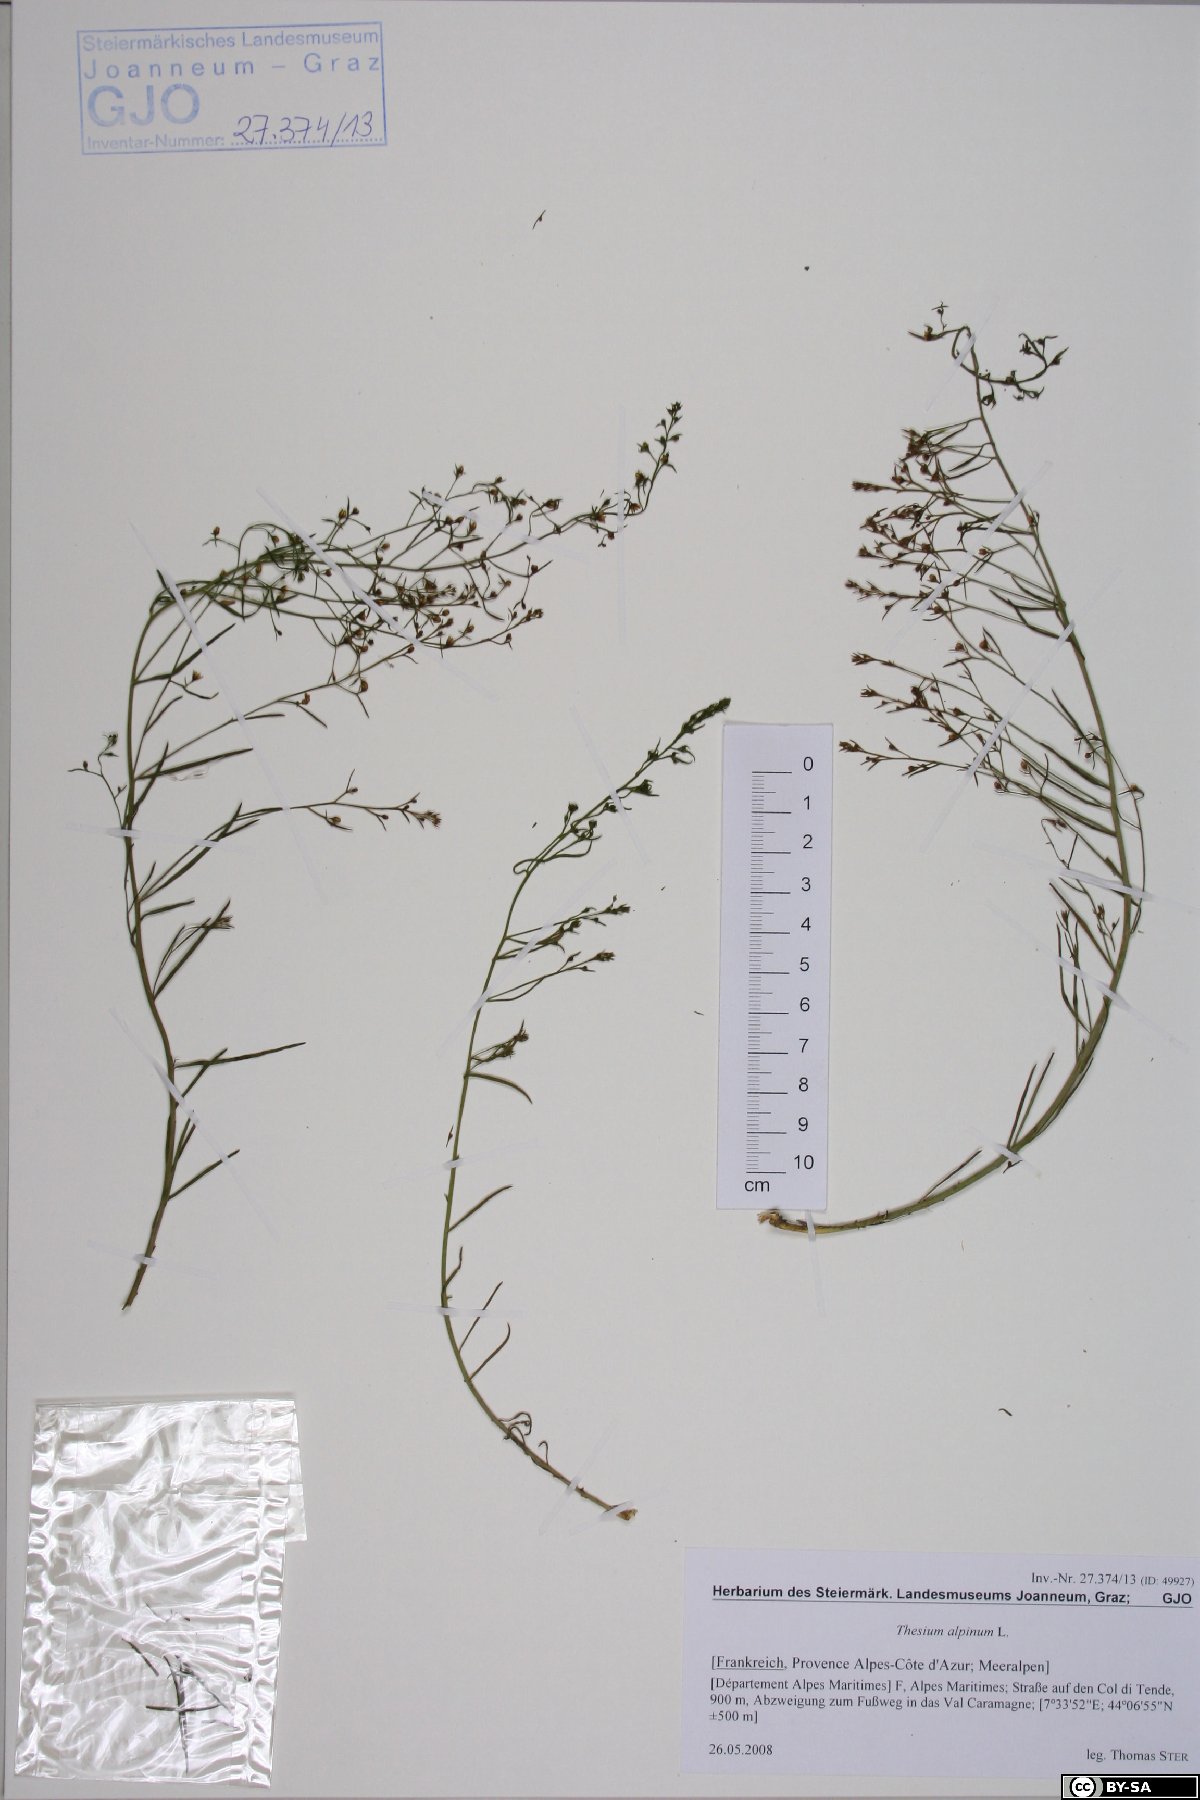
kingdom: Plantae
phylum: Tracheophyta
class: Magnoliopsida
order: Santalales
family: Thesiaceae
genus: Thesium
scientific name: Thesium alpinum
